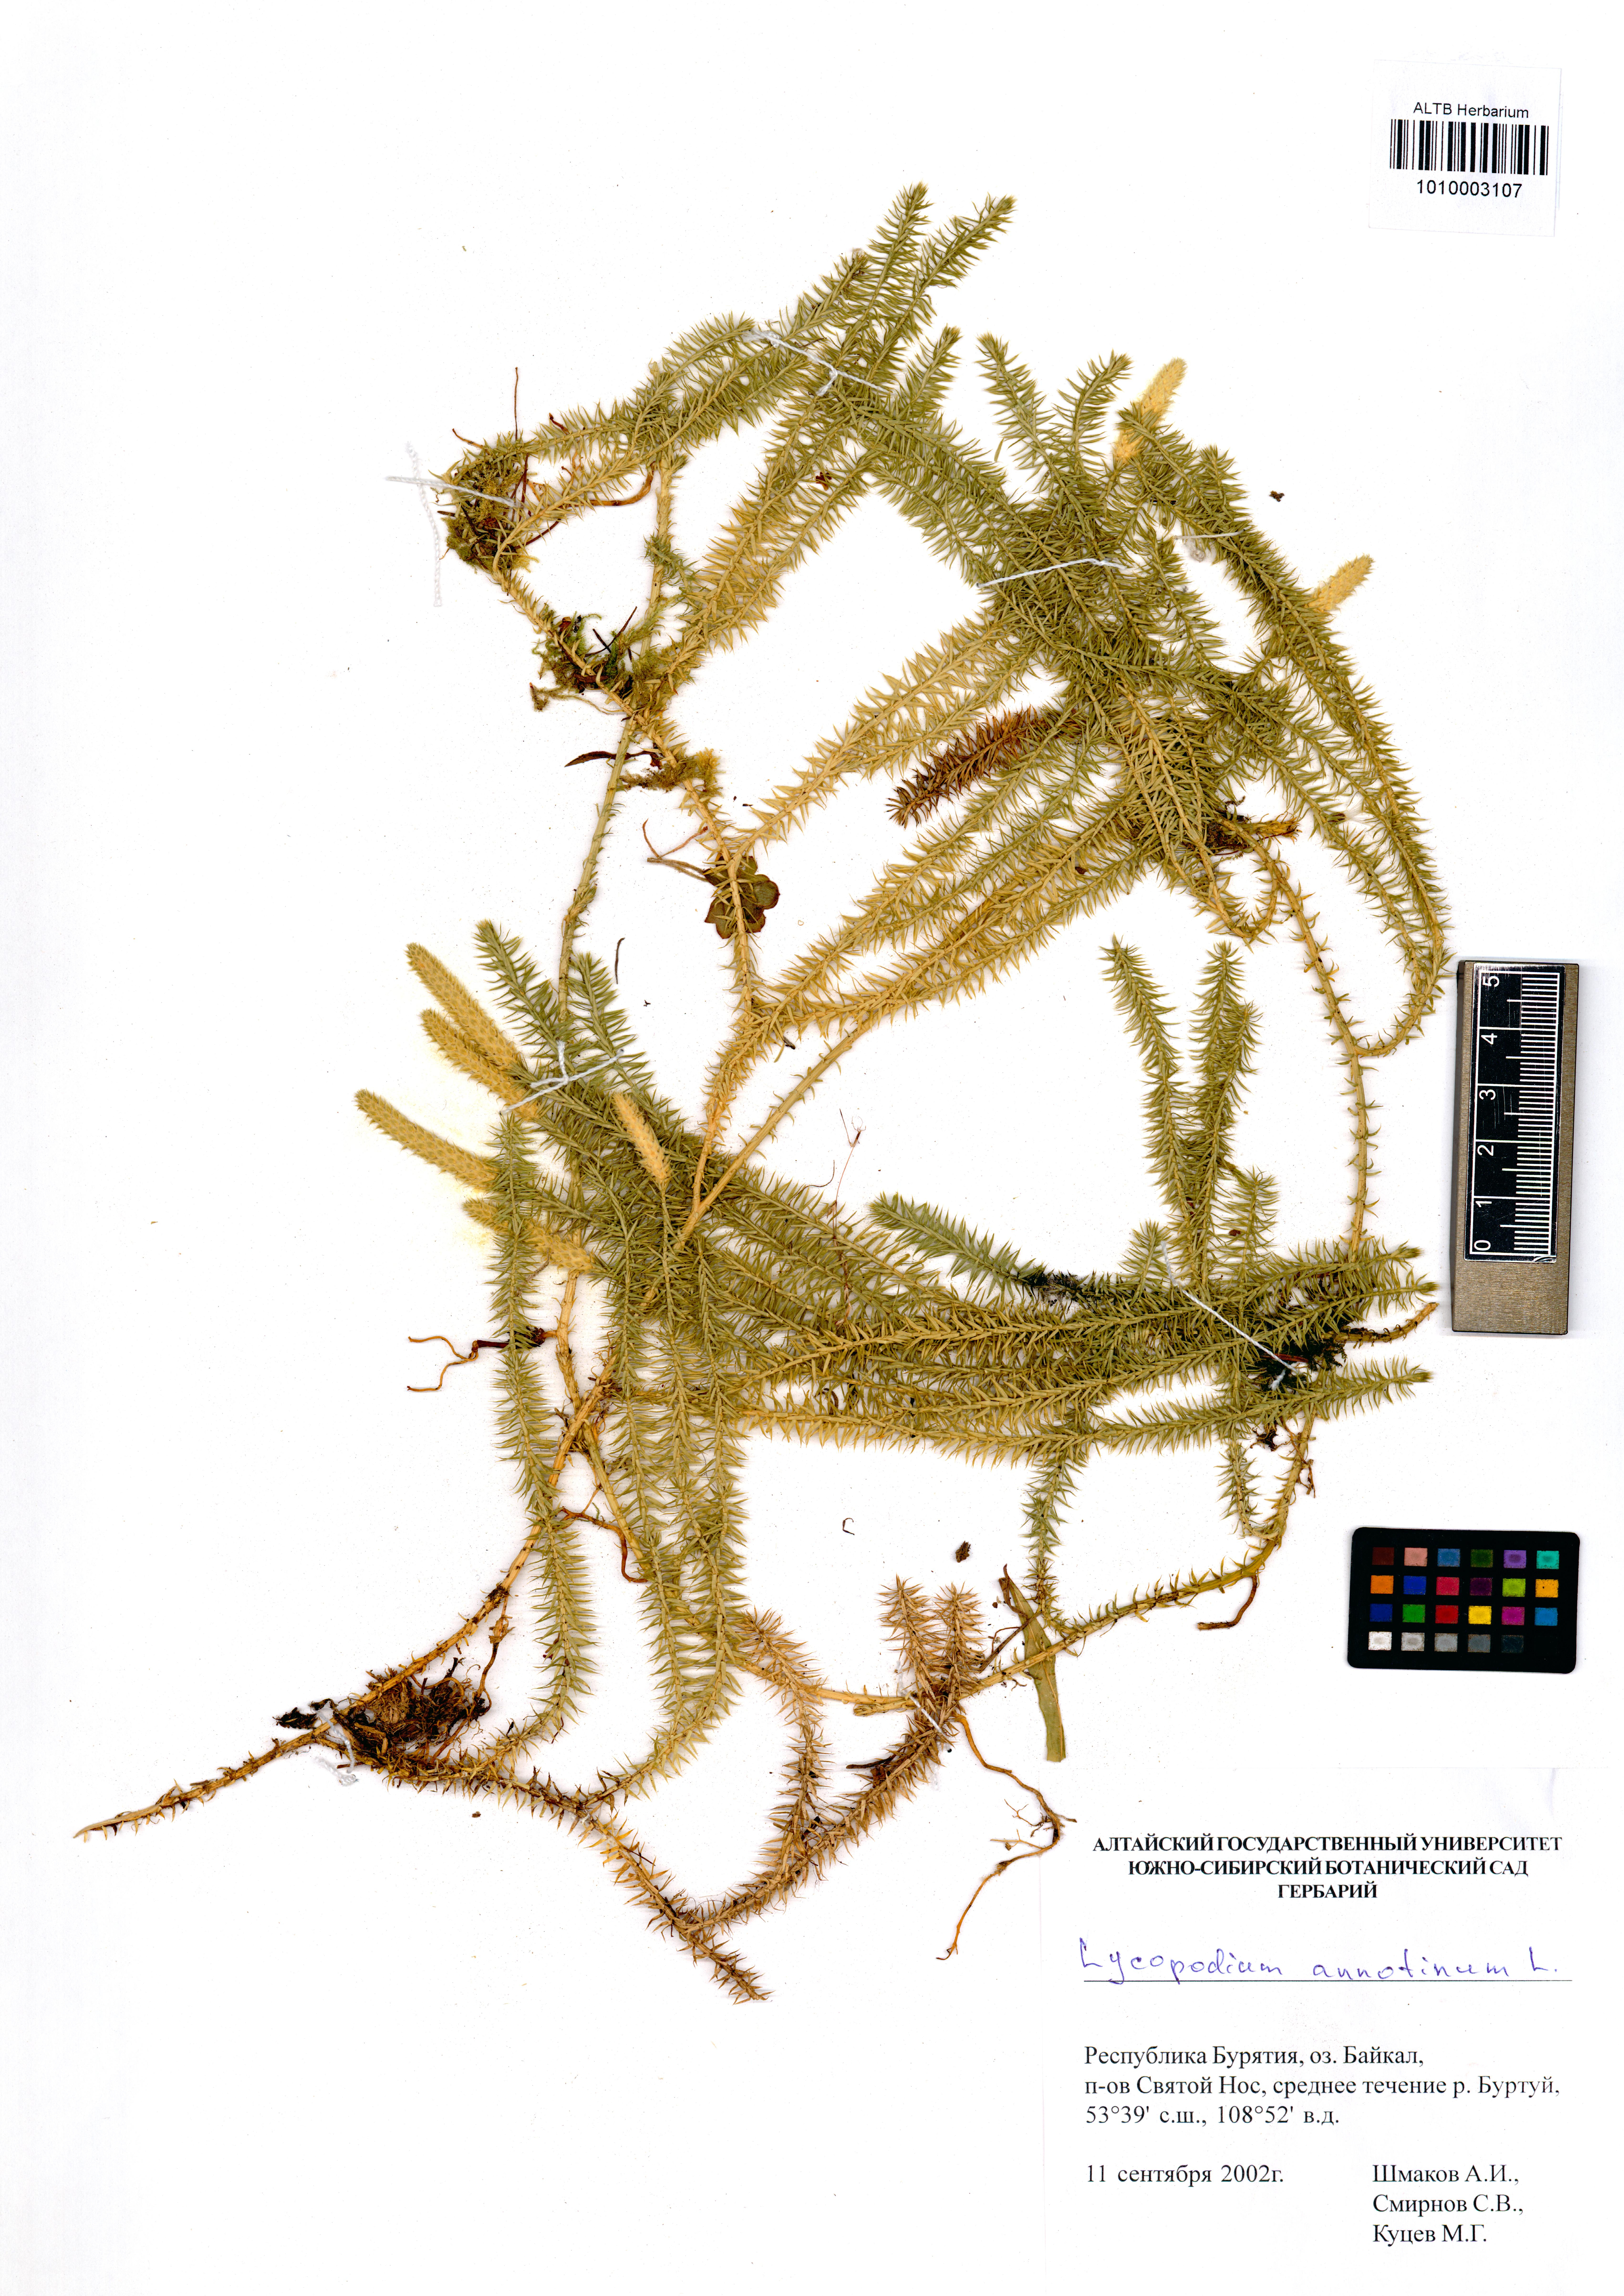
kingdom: Plantae
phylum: Tracheophyta
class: Lycopodiopsida
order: Lycopodiales
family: Lycopodiaceae
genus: Spinulum
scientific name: Spinulum annotinum
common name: Interrupted club-moss
